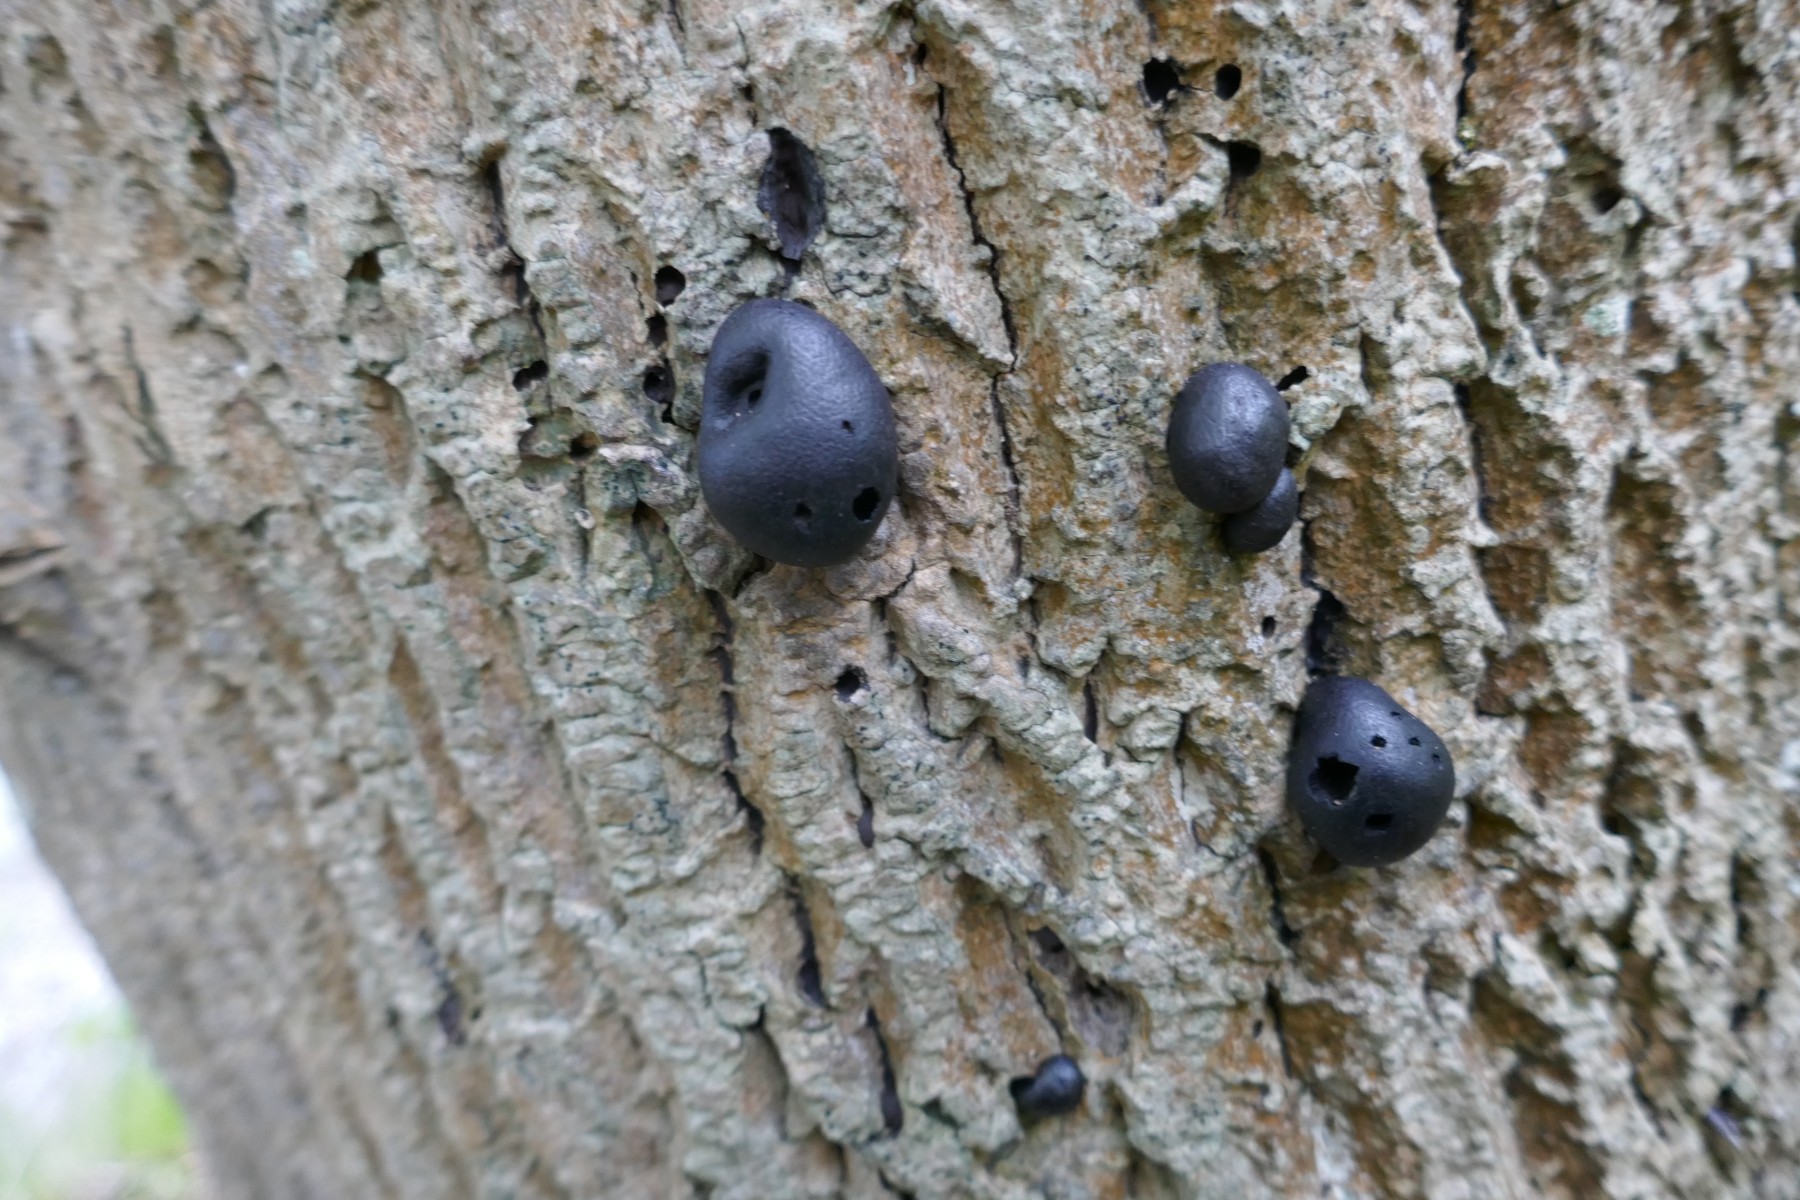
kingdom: Fungi
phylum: Ascomycota
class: Sordariomycetes
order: Xylariales
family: Hypoxylaceae
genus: Daldinia
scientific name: Daldinia concentrica
